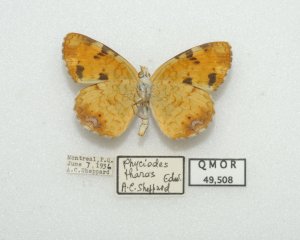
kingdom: Animalia
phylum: Arthropoda
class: Insecta
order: Lepidoptera
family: Nymphalidae
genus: Phyciodes
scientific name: Phyciodes tharos
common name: Northern Crescent
